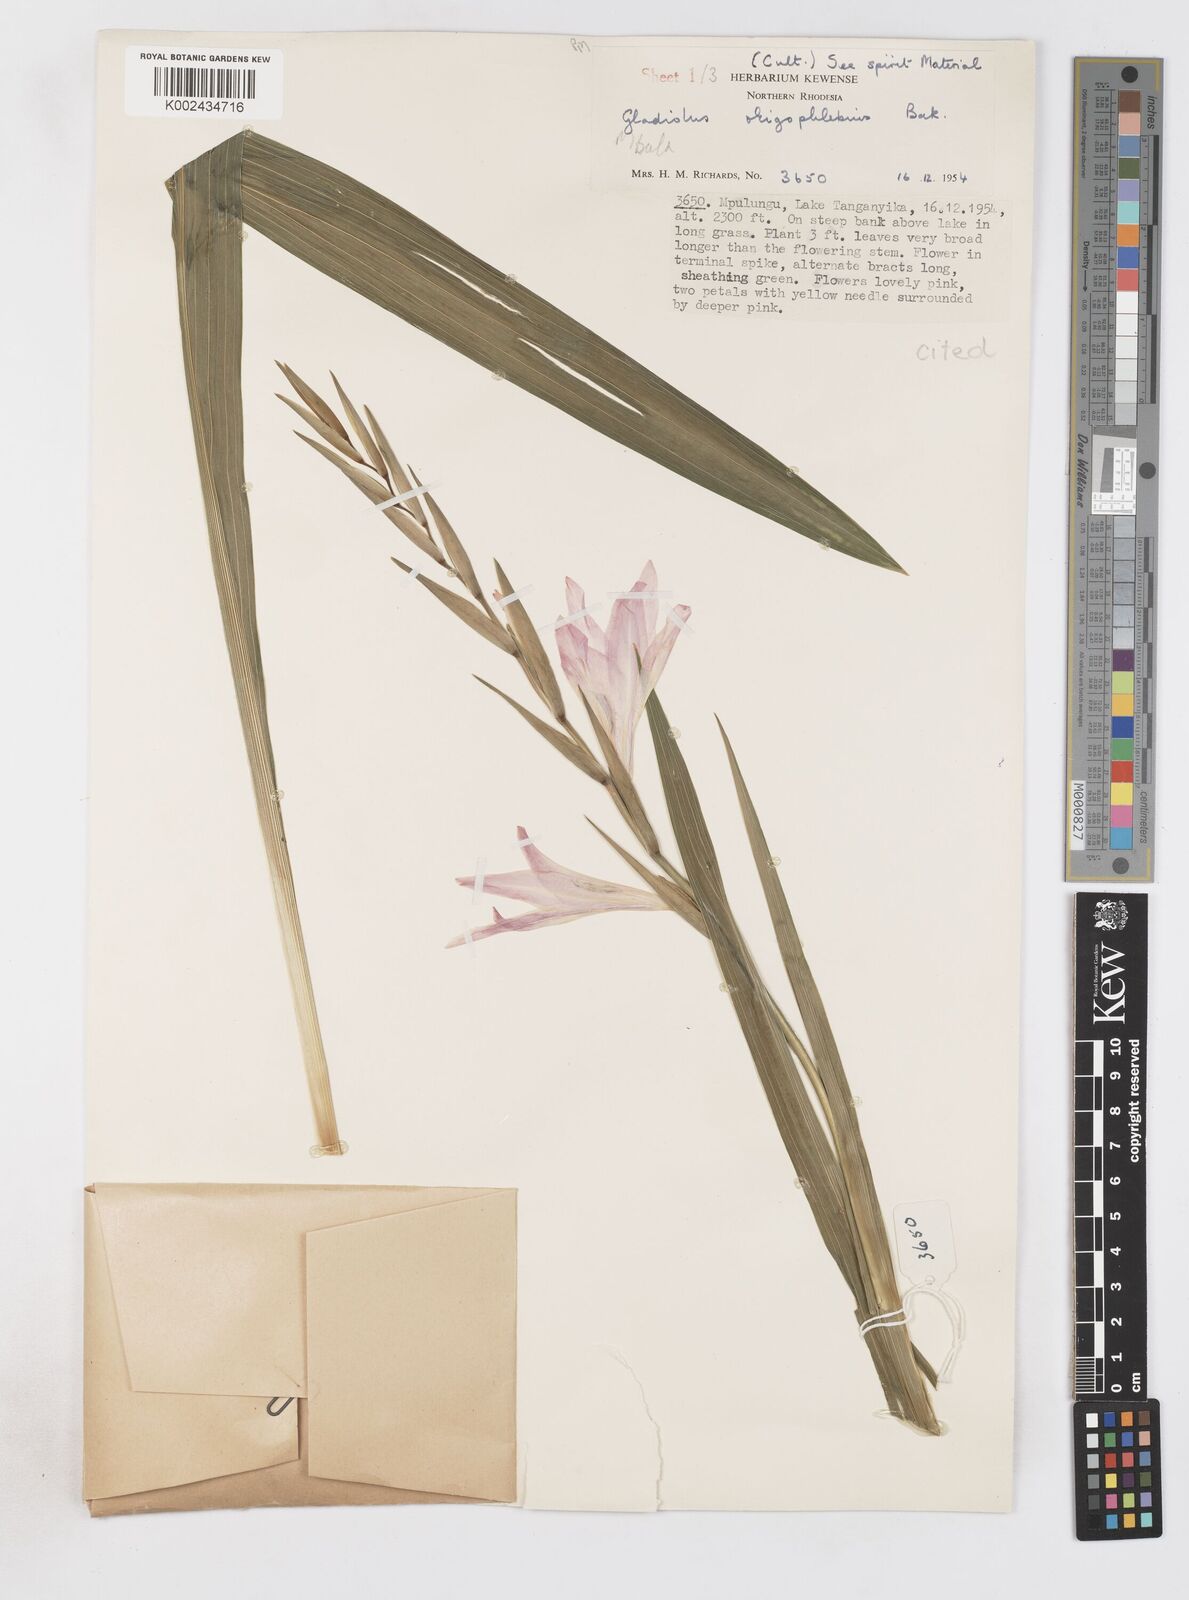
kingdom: Plantae
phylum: Tracheophyta
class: Liliopsida
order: Asparagales
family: Iridaceae
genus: Gladiolus
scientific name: Gladiolus oligophlebius
